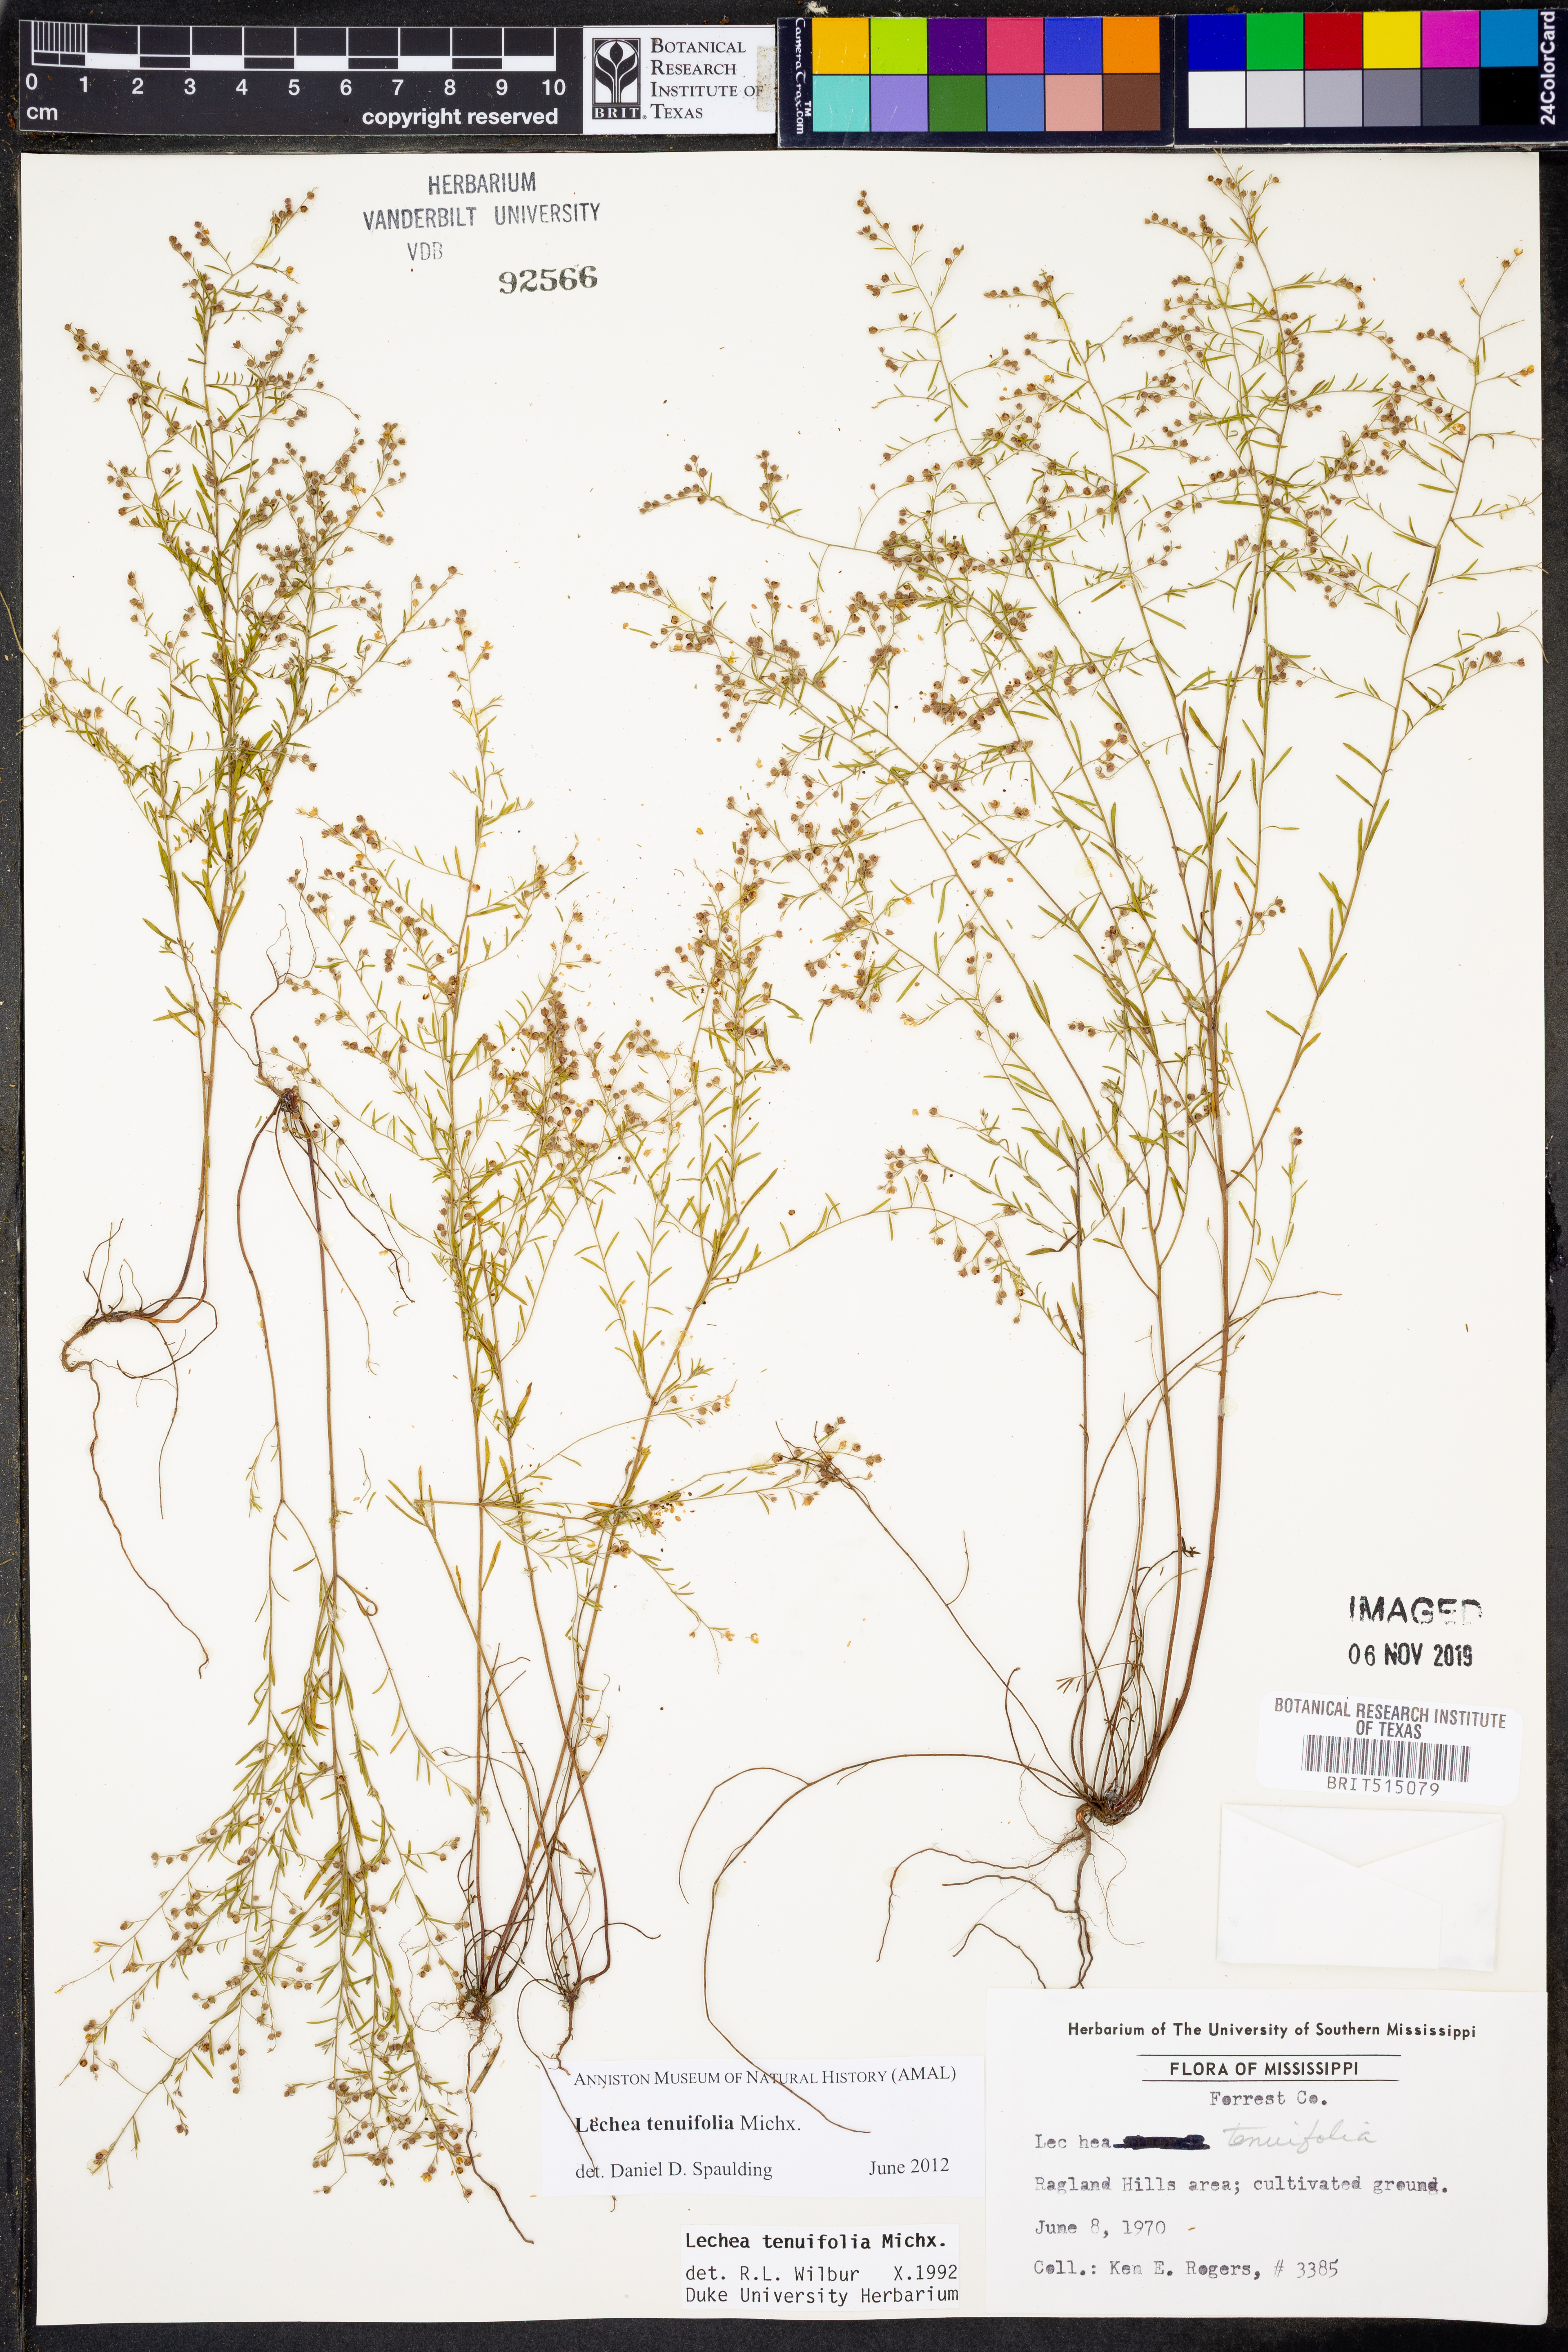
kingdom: Plantae
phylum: Tracheophyta
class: Magnoliopsida
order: Malvales
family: Cistaceae
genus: Lechea
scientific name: Lechea tenuifolia
